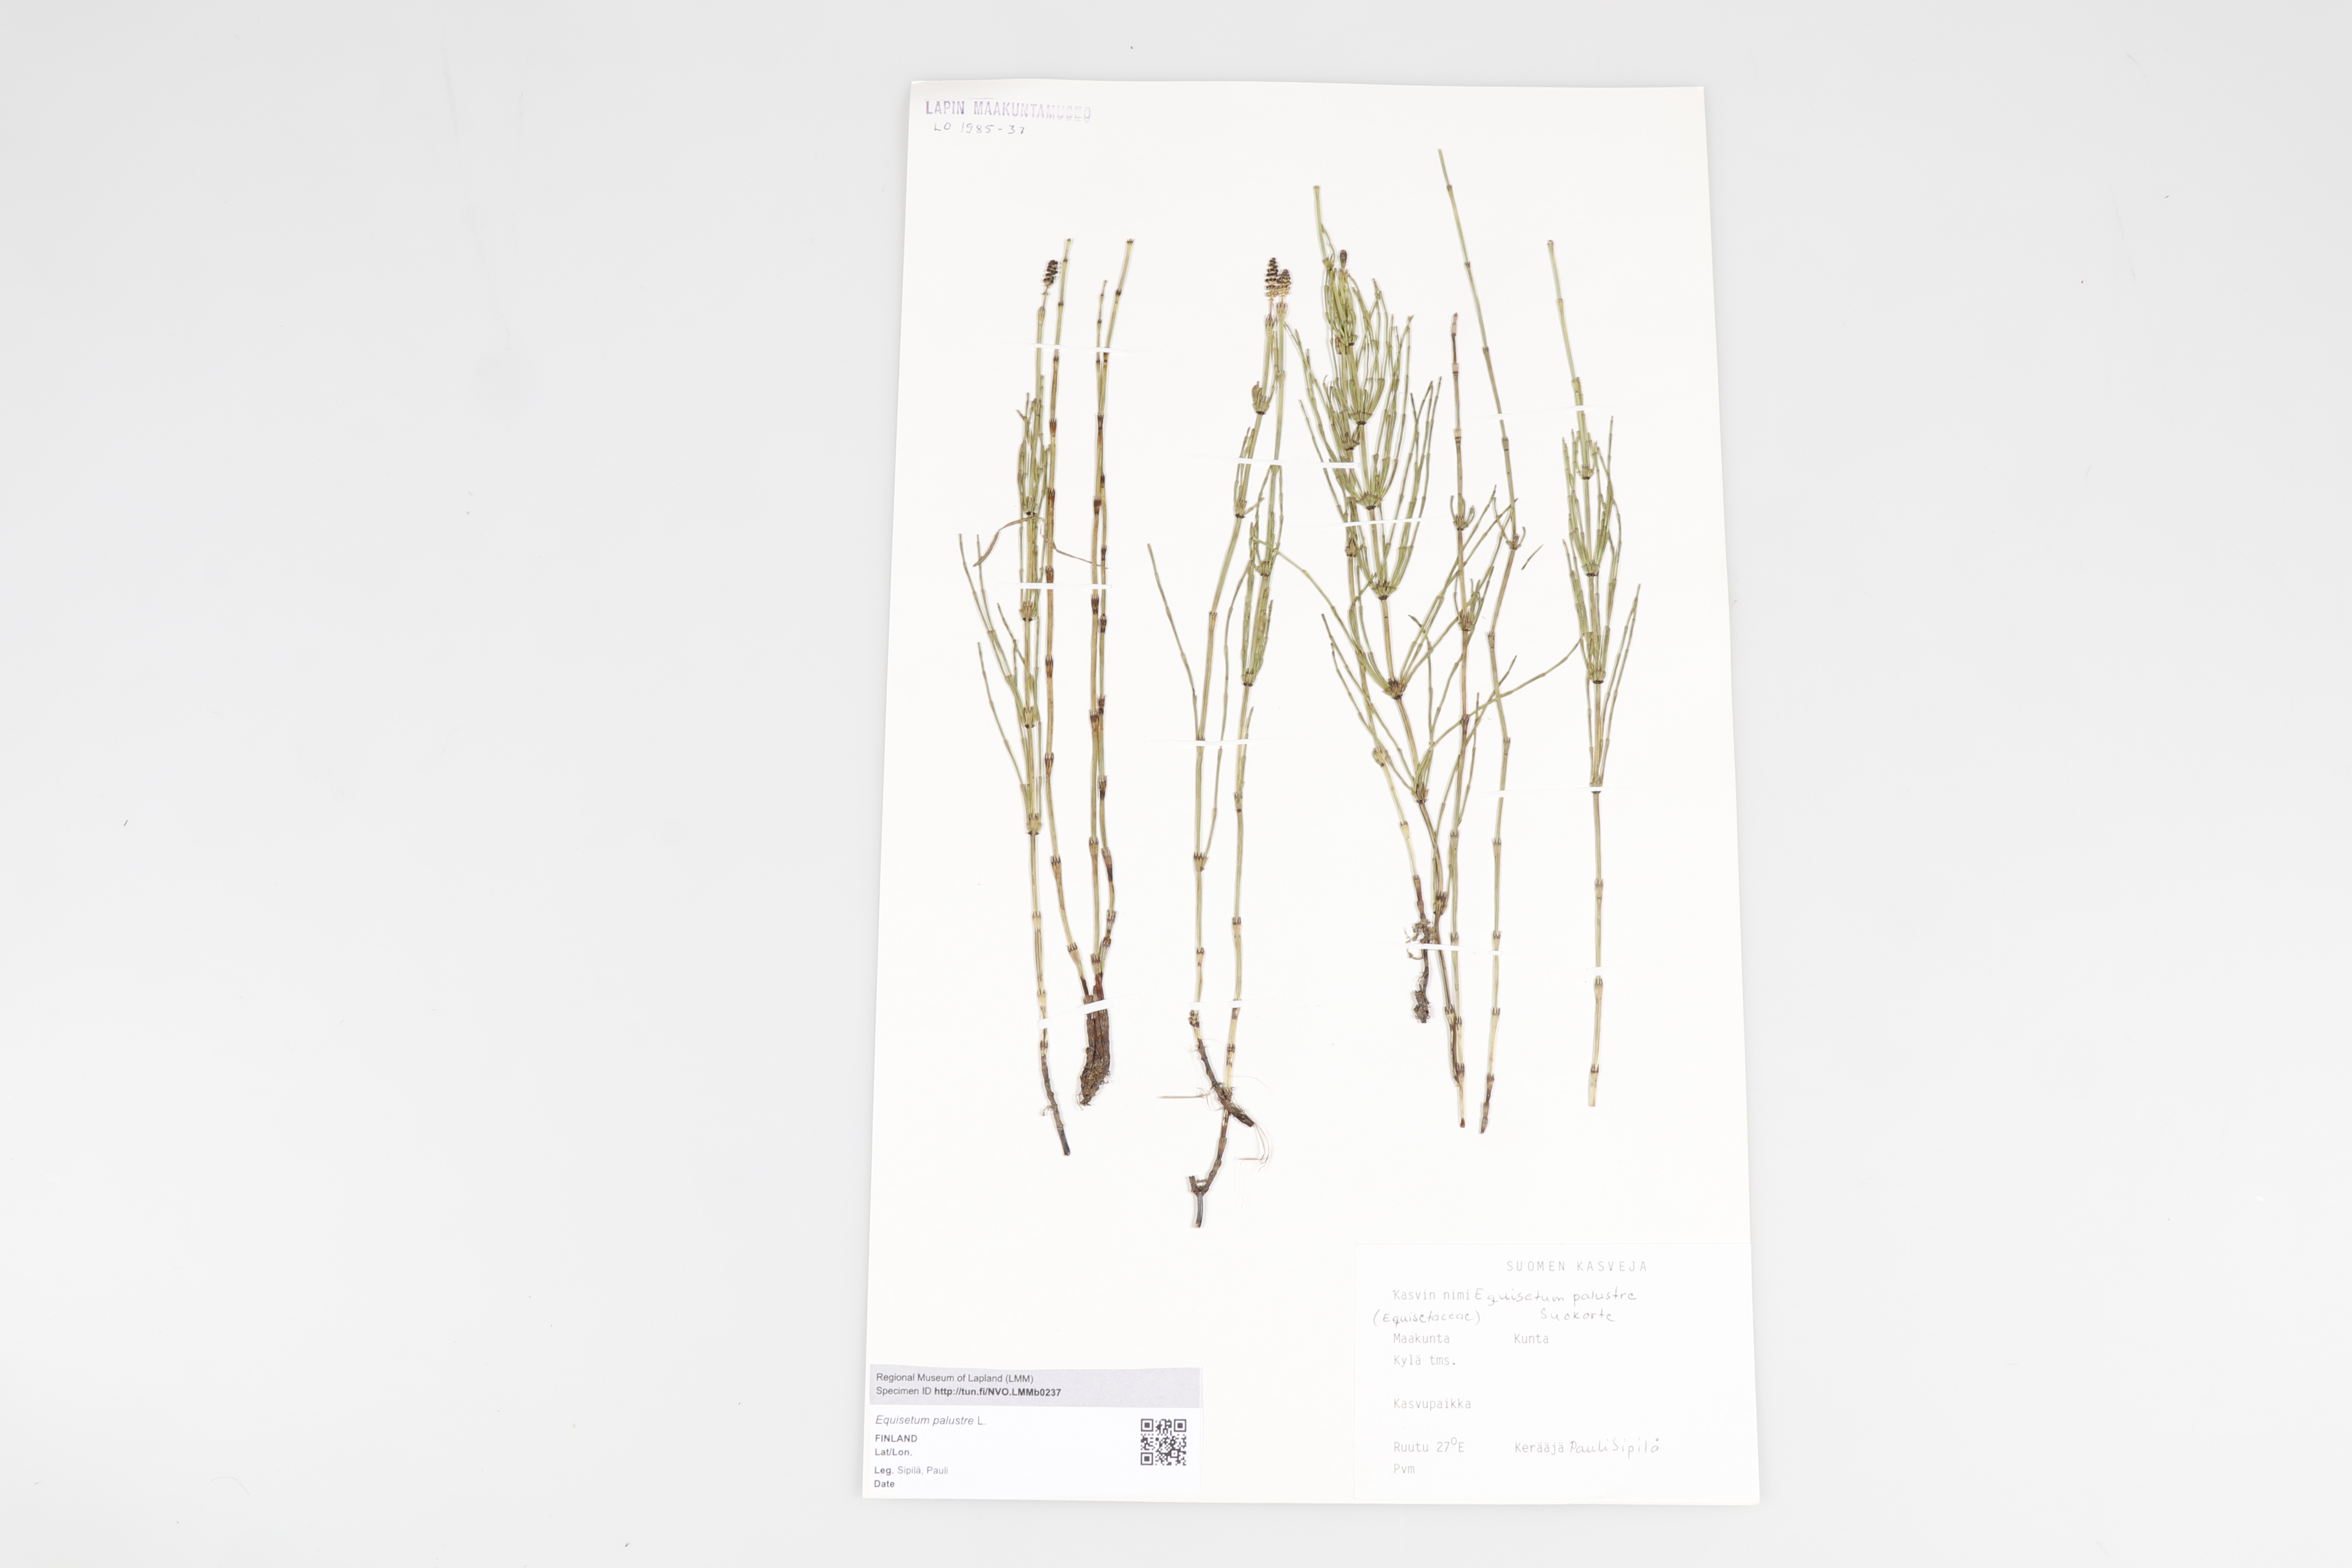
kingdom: Plantae
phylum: Tracheophyta
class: Polypodiopsida
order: Equisetales
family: Equisetaceae
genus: Equisetum
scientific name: Equisetum palustre
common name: Marsh horsetail
